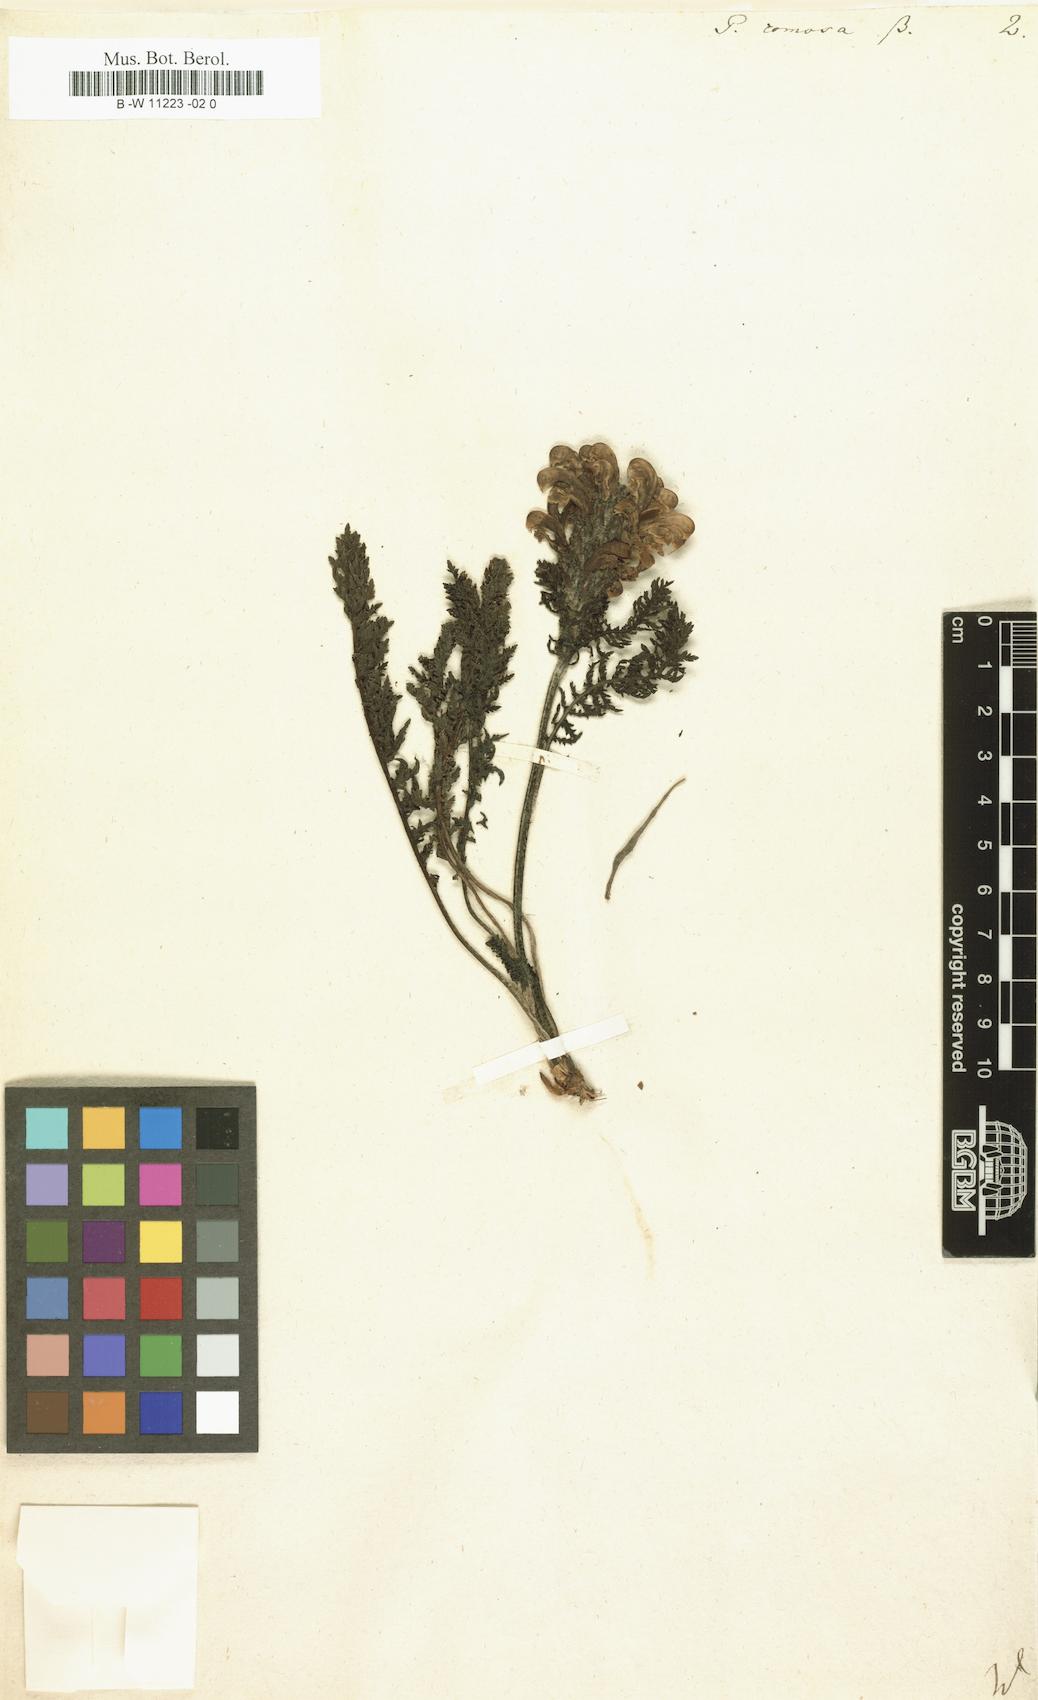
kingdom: Plantae
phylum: Tracheophyta
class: Magnoliopsida
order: Lamiales
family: Orobanchaceae
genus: Pedicularis
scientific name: Pedicularis comosa
